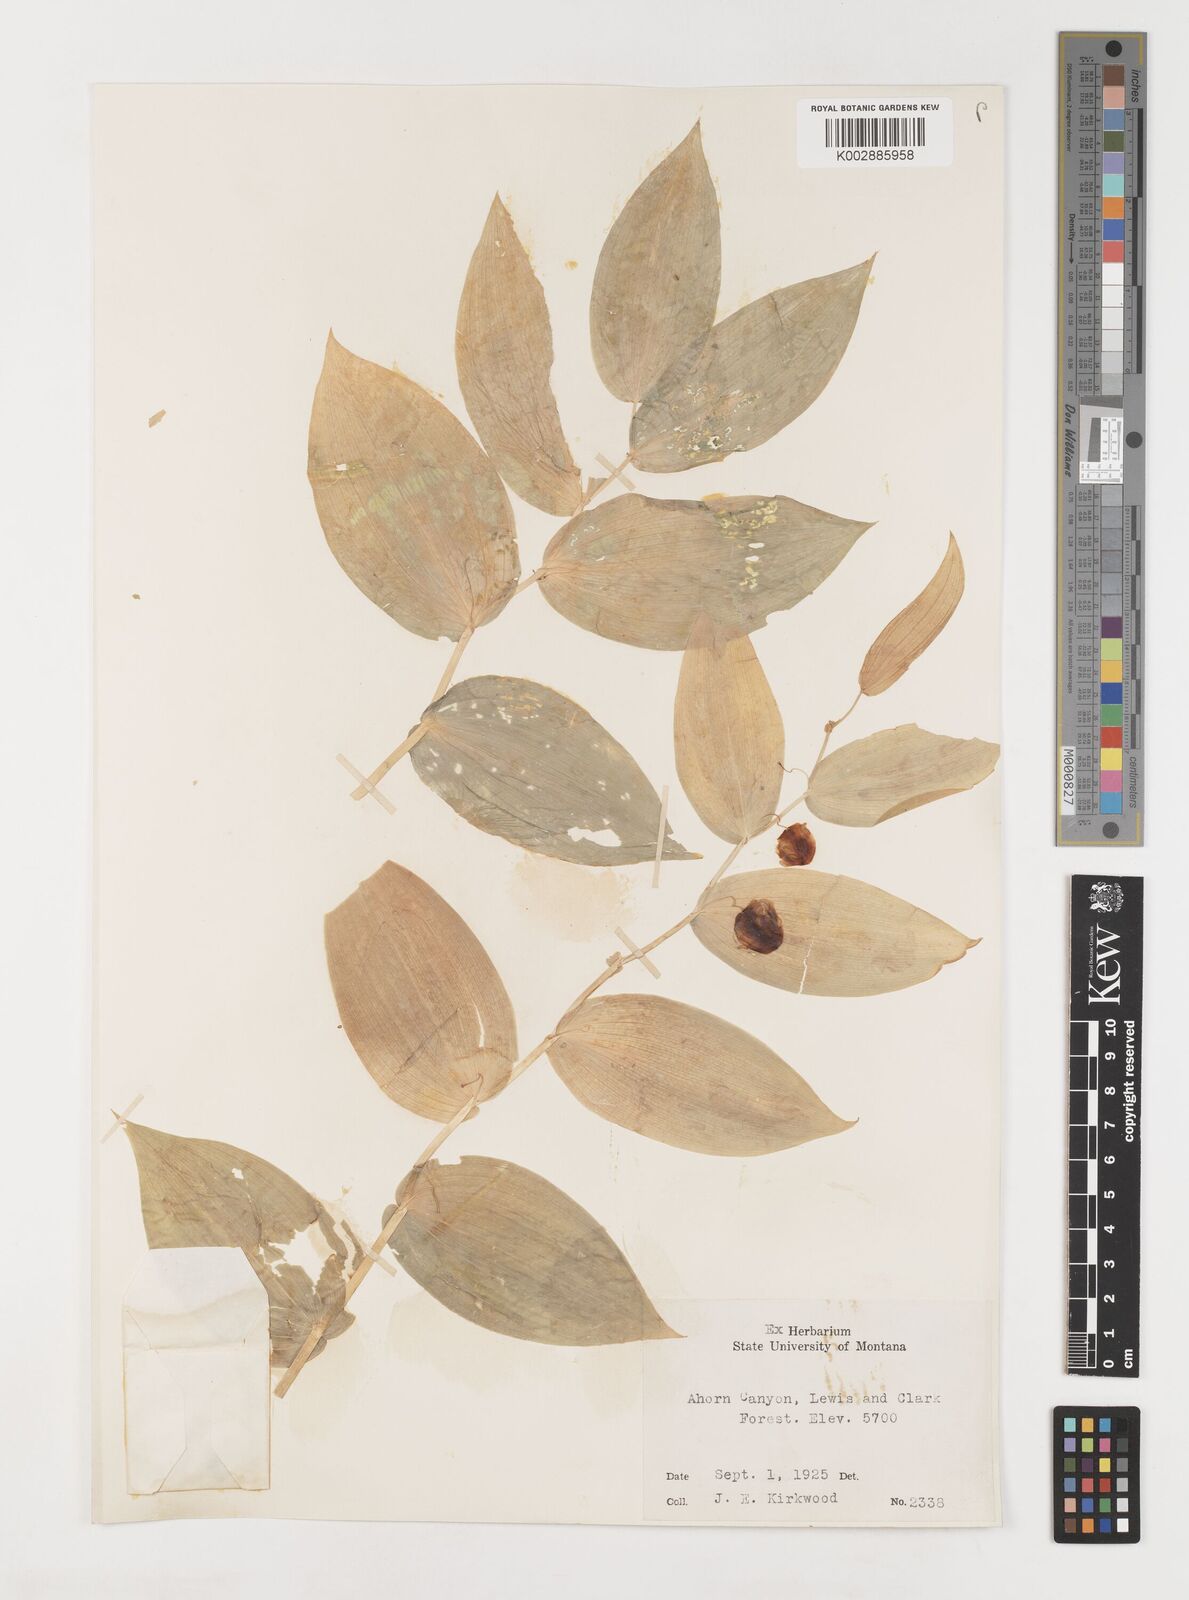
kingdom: Plantae
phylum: Tracheophyta
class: Liliopsida
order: Liliales
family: Liliaceae
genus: Streptopus
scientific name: Streptopus amplexifolius
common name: Clasp twisted stalk
